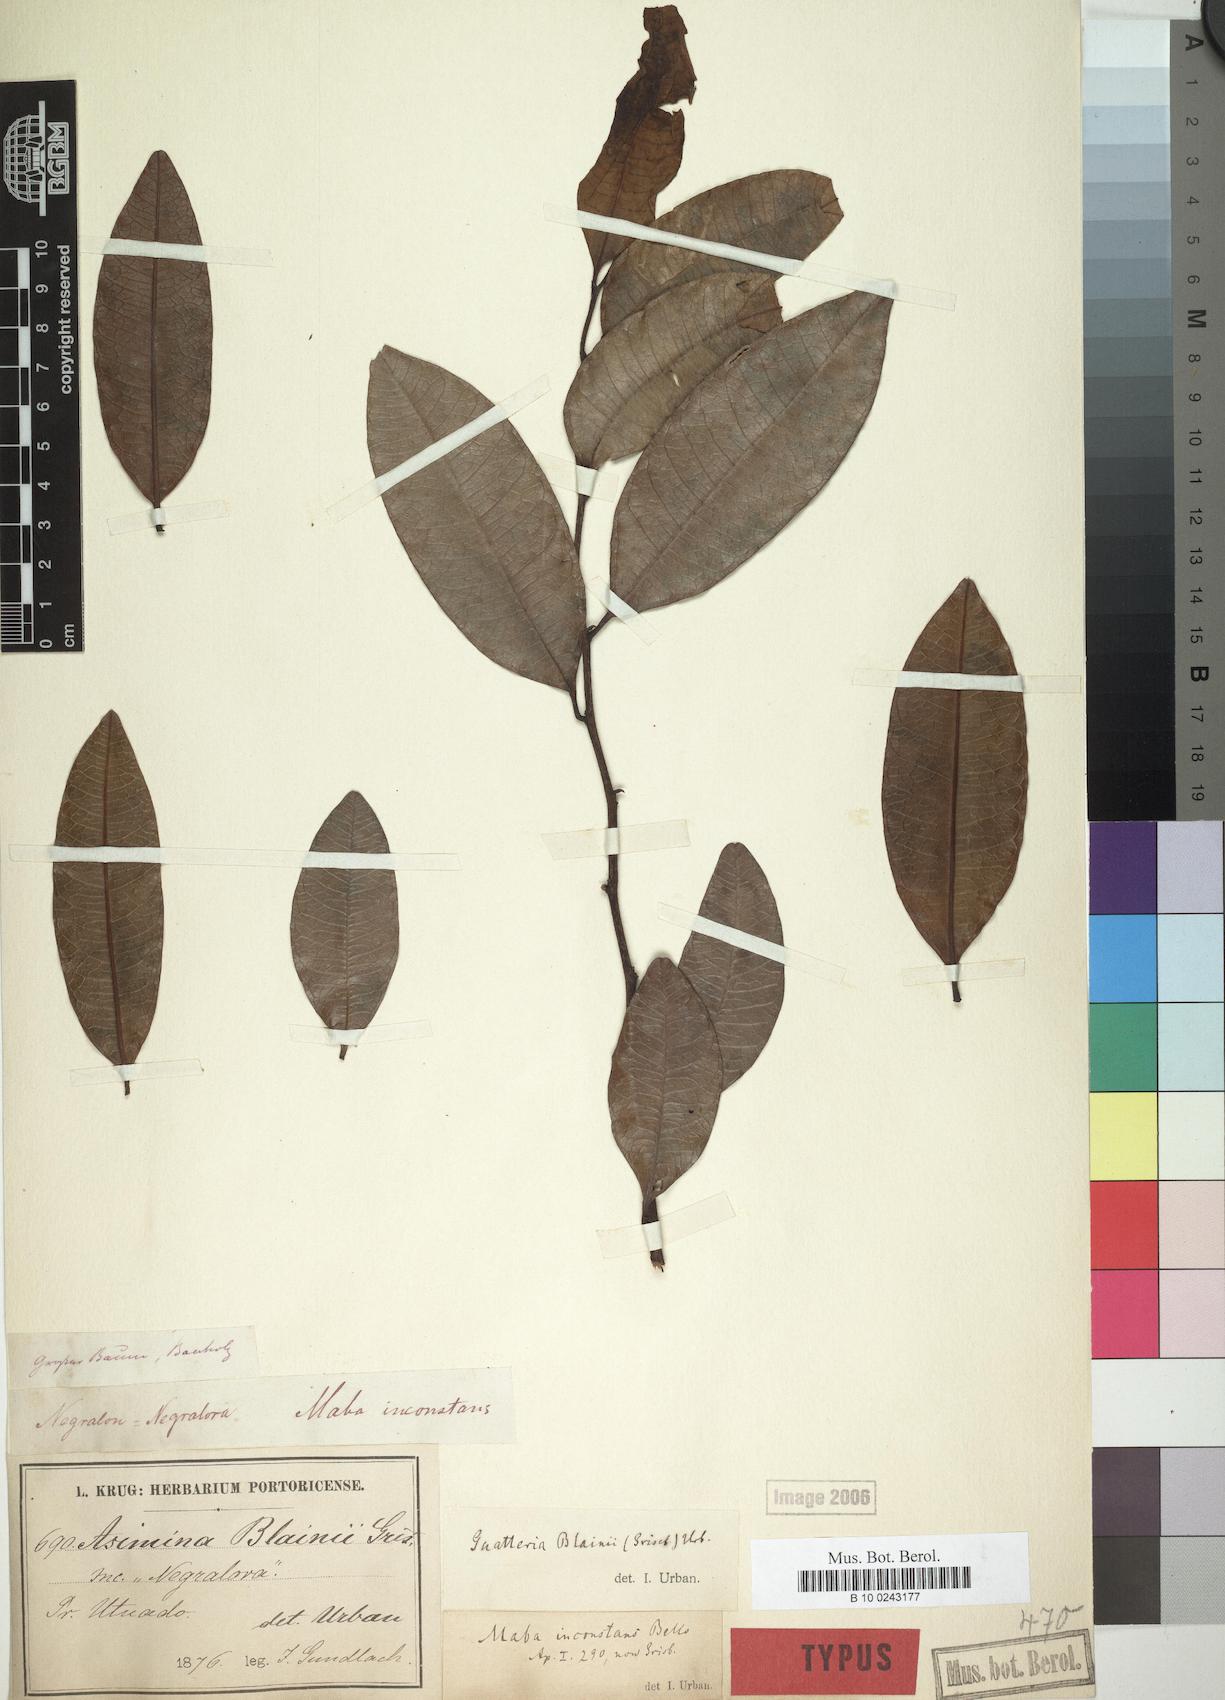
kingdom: Plantae
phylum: Tracheophyta
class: Magnoliopsida
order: Magnoliales
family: Annonaceae
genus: Guatteria
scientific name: Guatteria blainii
